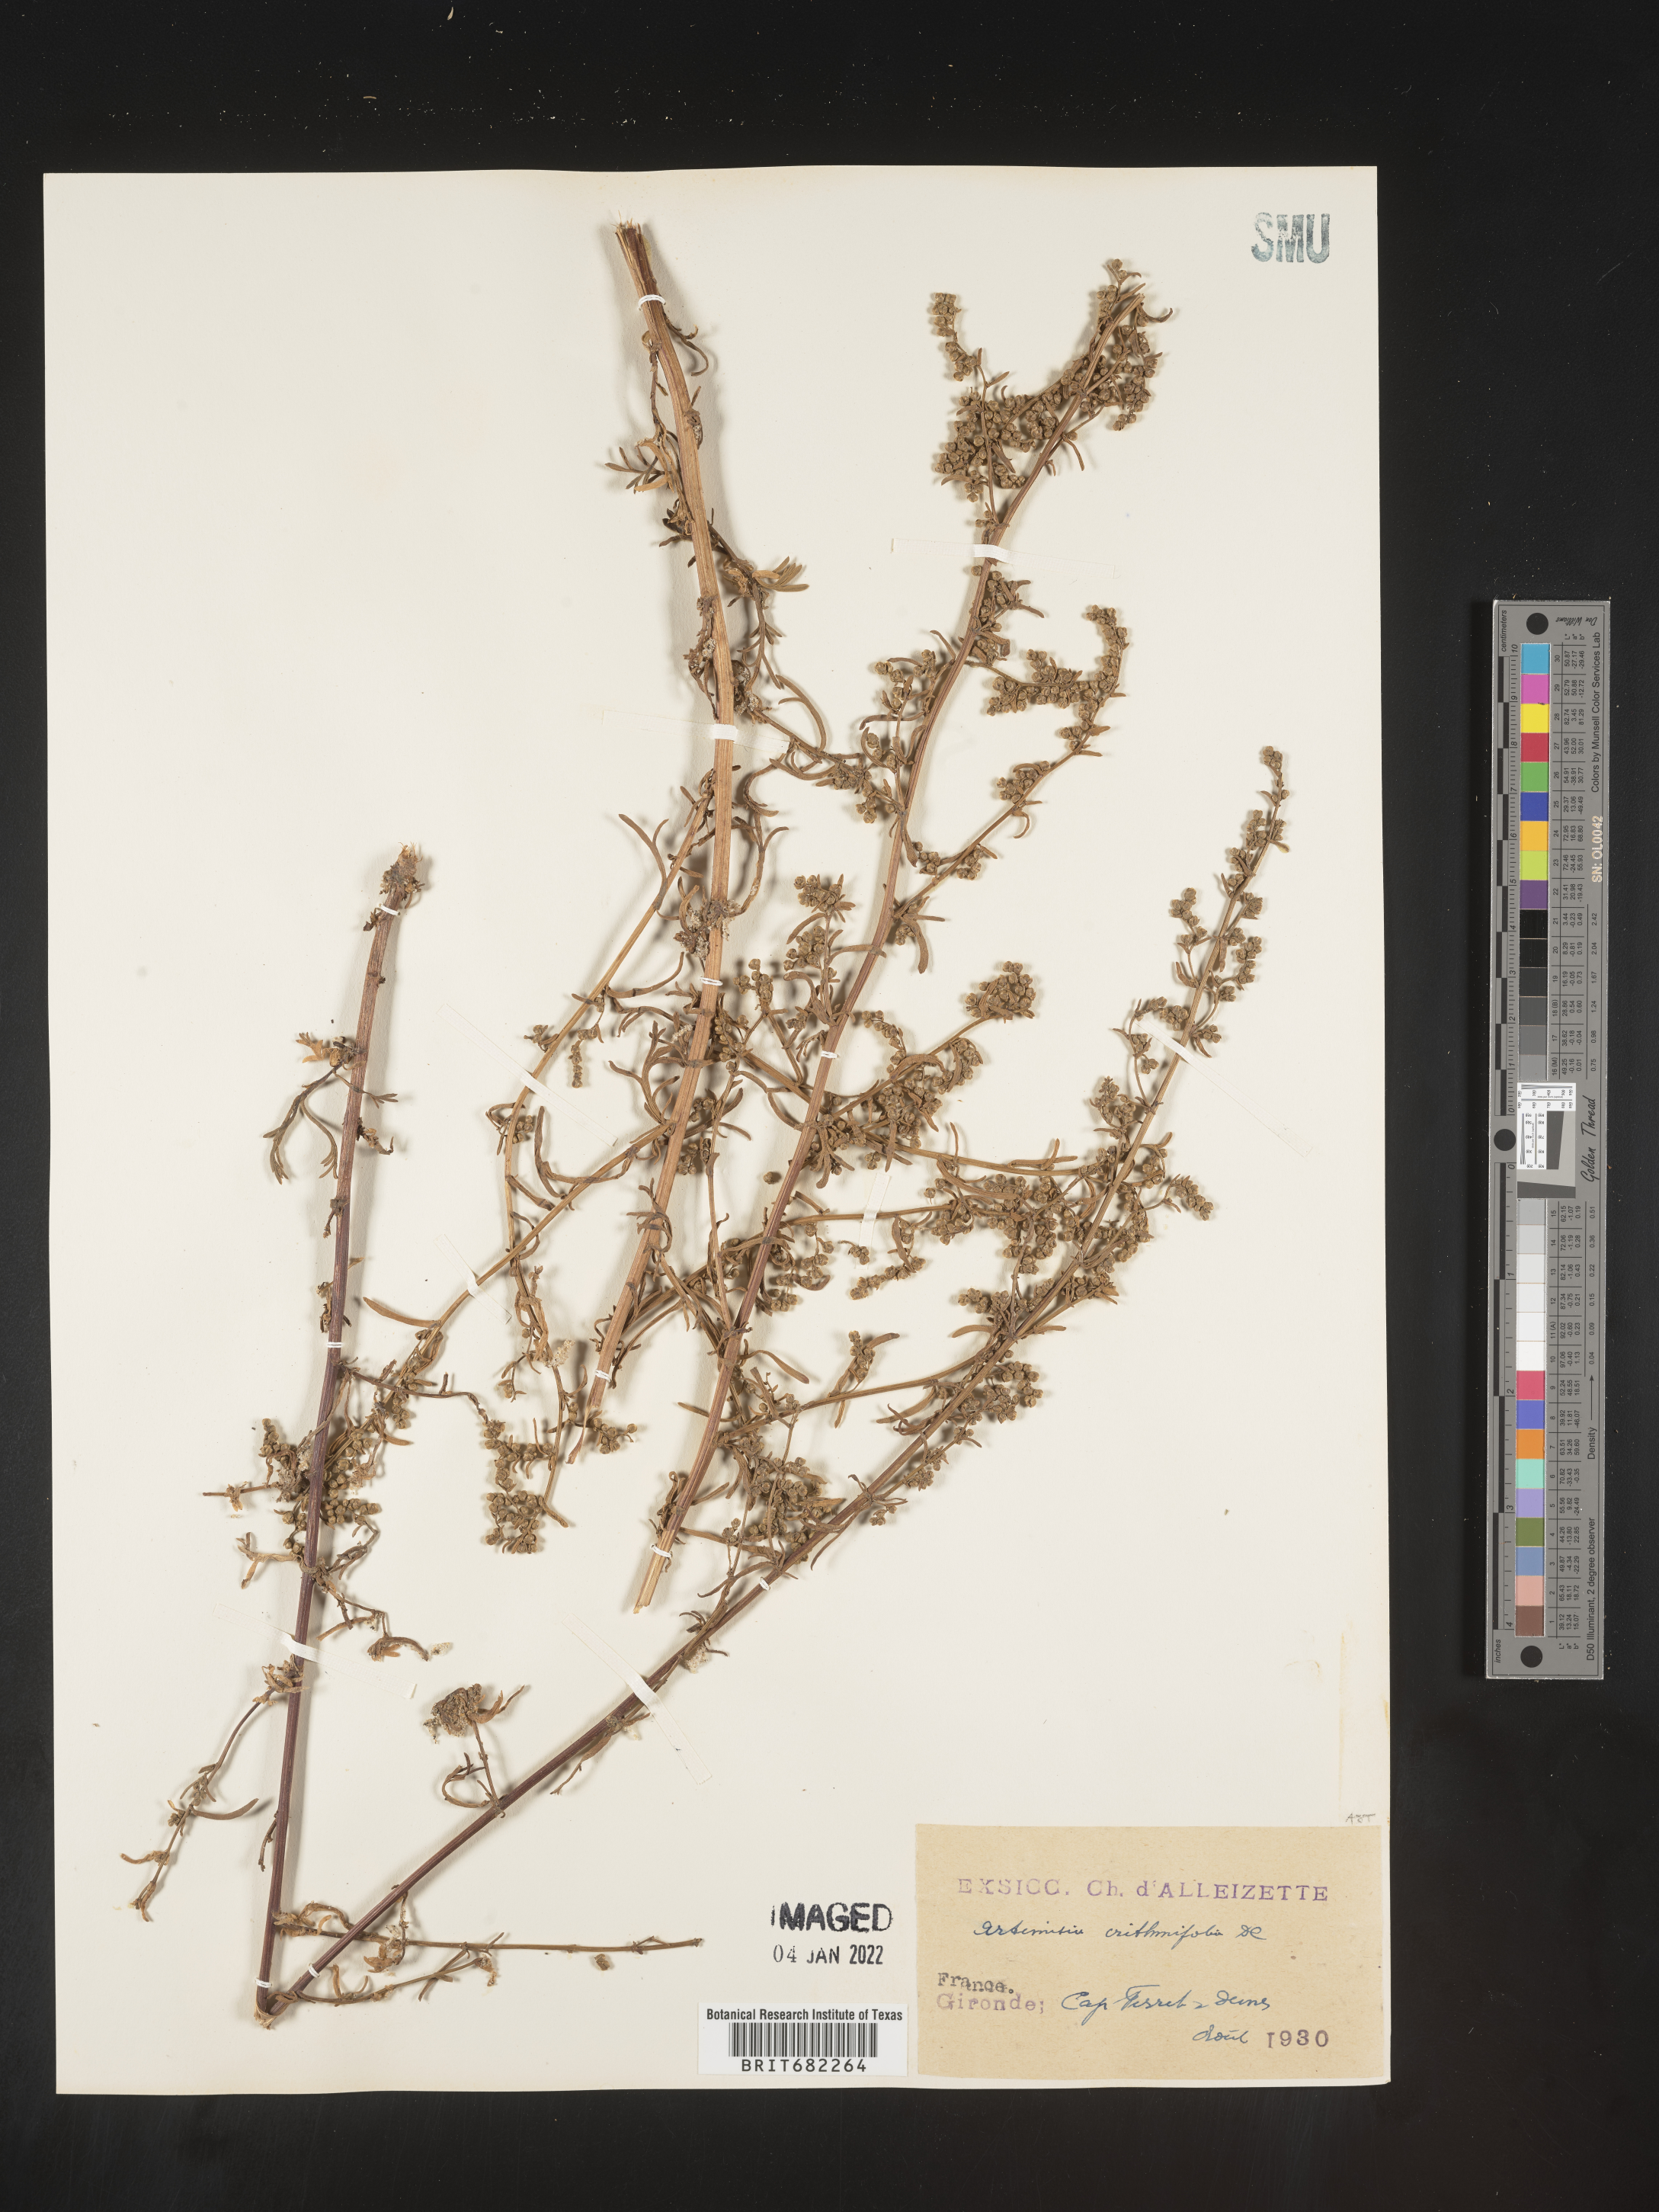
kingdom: Plantae
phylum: Tracheophyta
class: Magnoliopsida
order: Asterales
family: Asteraceae
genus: Artemisia
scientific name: Artemisia
